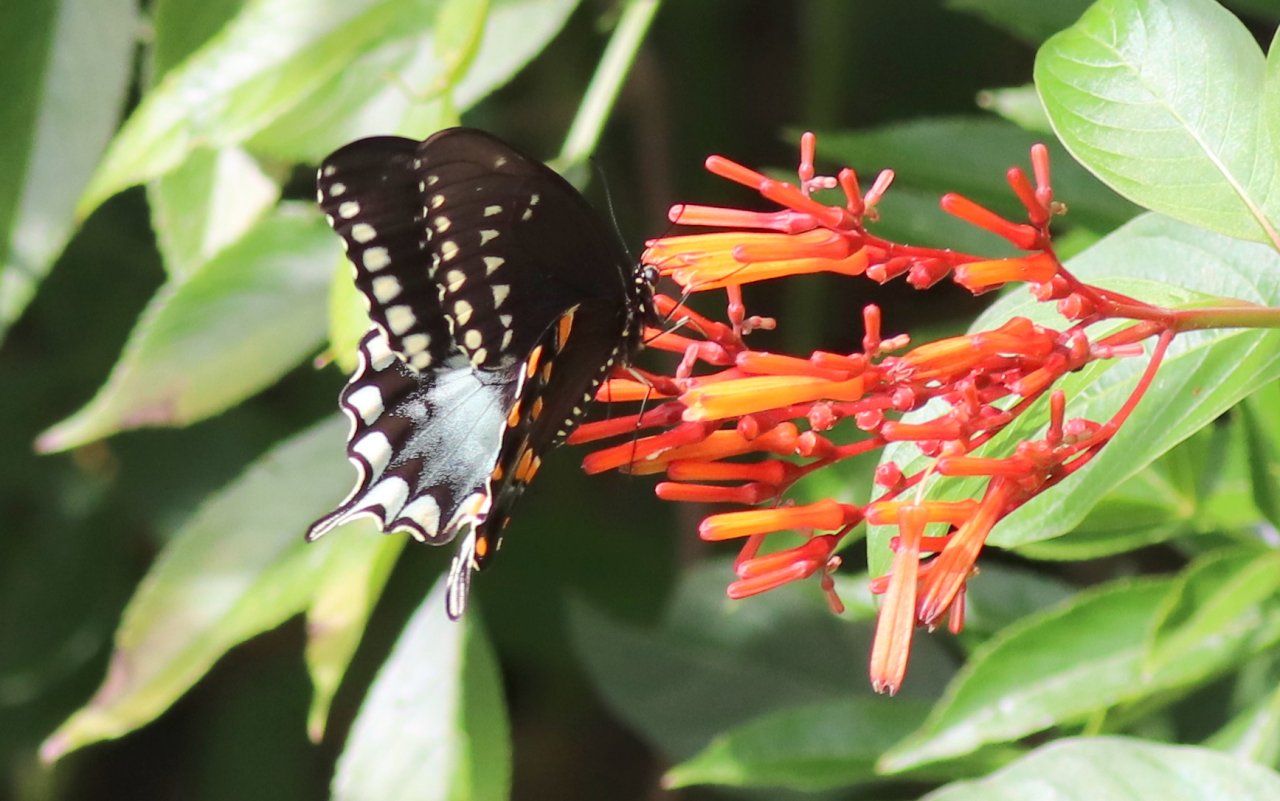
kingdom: Animalia
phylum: Arthropoda
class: Insecta
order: Lepidoptera
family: Papilionidae
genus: Pterourus
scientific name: Pterourus troilus
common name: Spicebush Swallowtail
